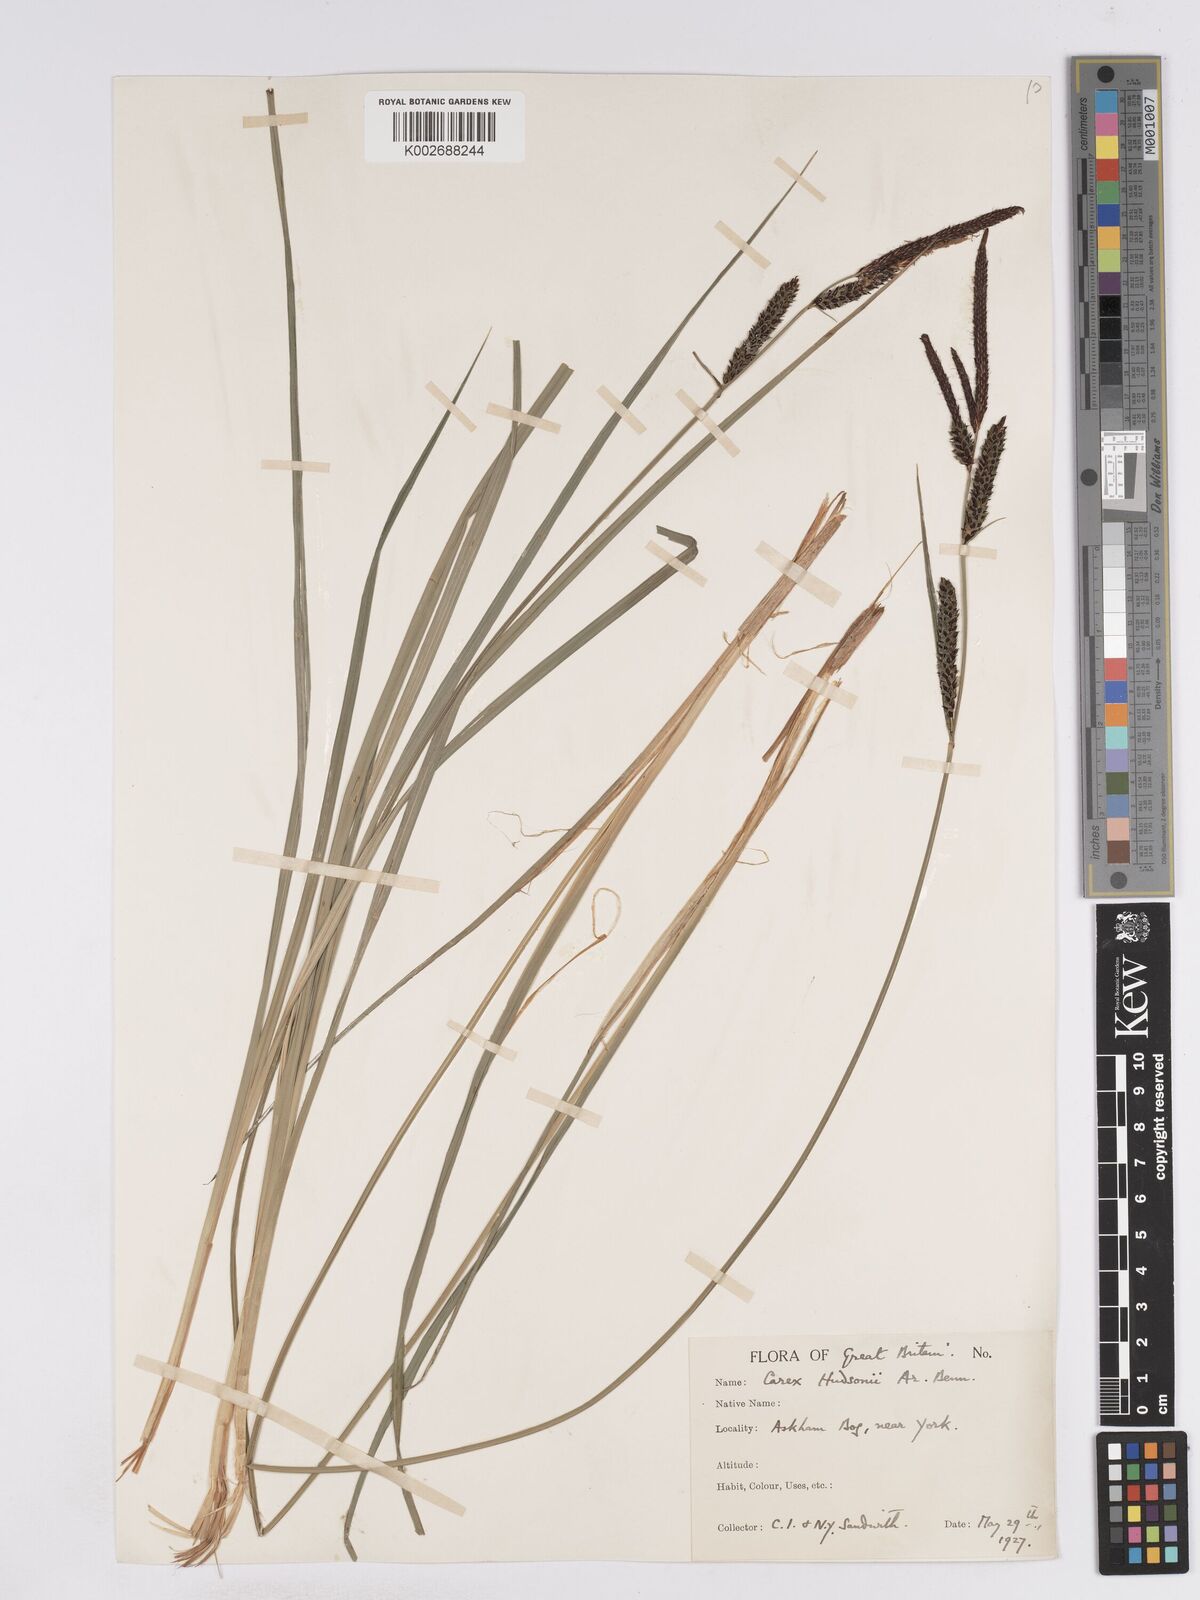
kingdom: Plantae
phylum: Tracheophyta
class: Liliopsida
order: Poales
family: Cyperaceae
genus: Carex
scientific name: Carex elata
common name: Tufted sedge
